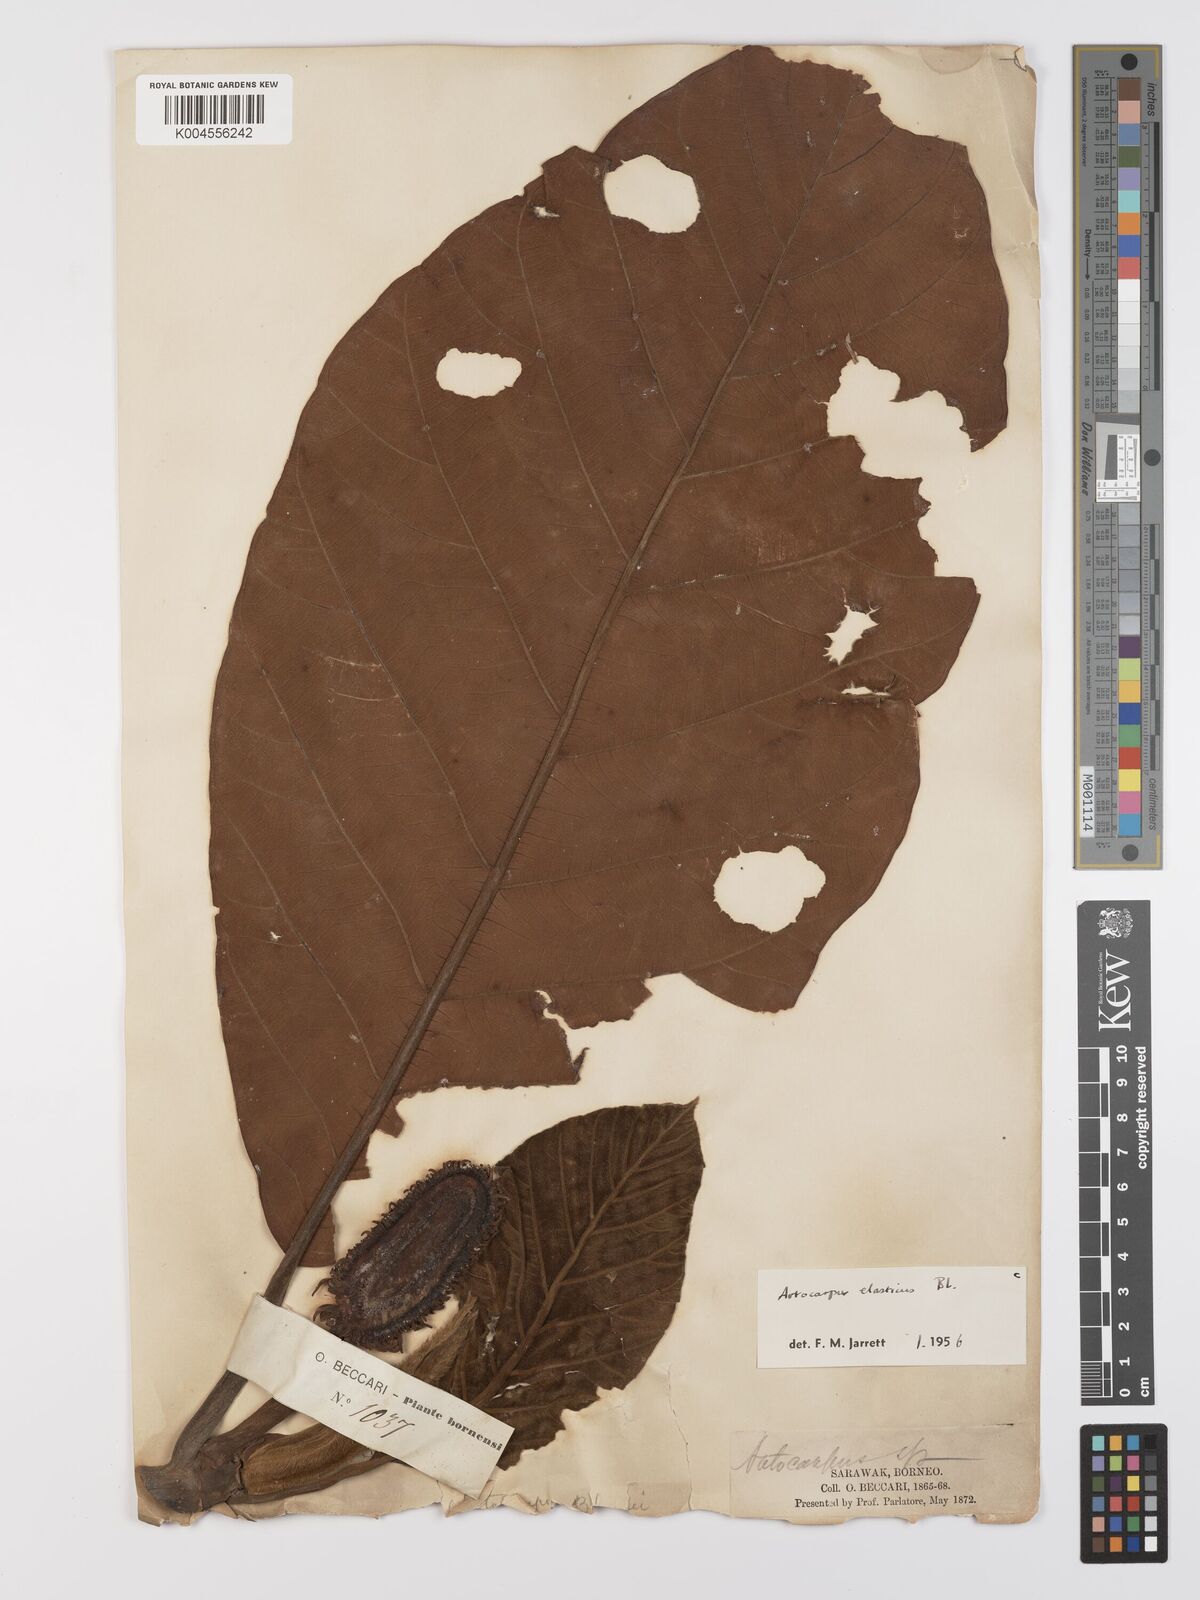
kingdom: Plantae
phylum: Tracheophyta
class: Magnoliopsida
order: Rosales
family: Moraceae
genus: Artocarpus
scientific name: Artocarpus elasticus
